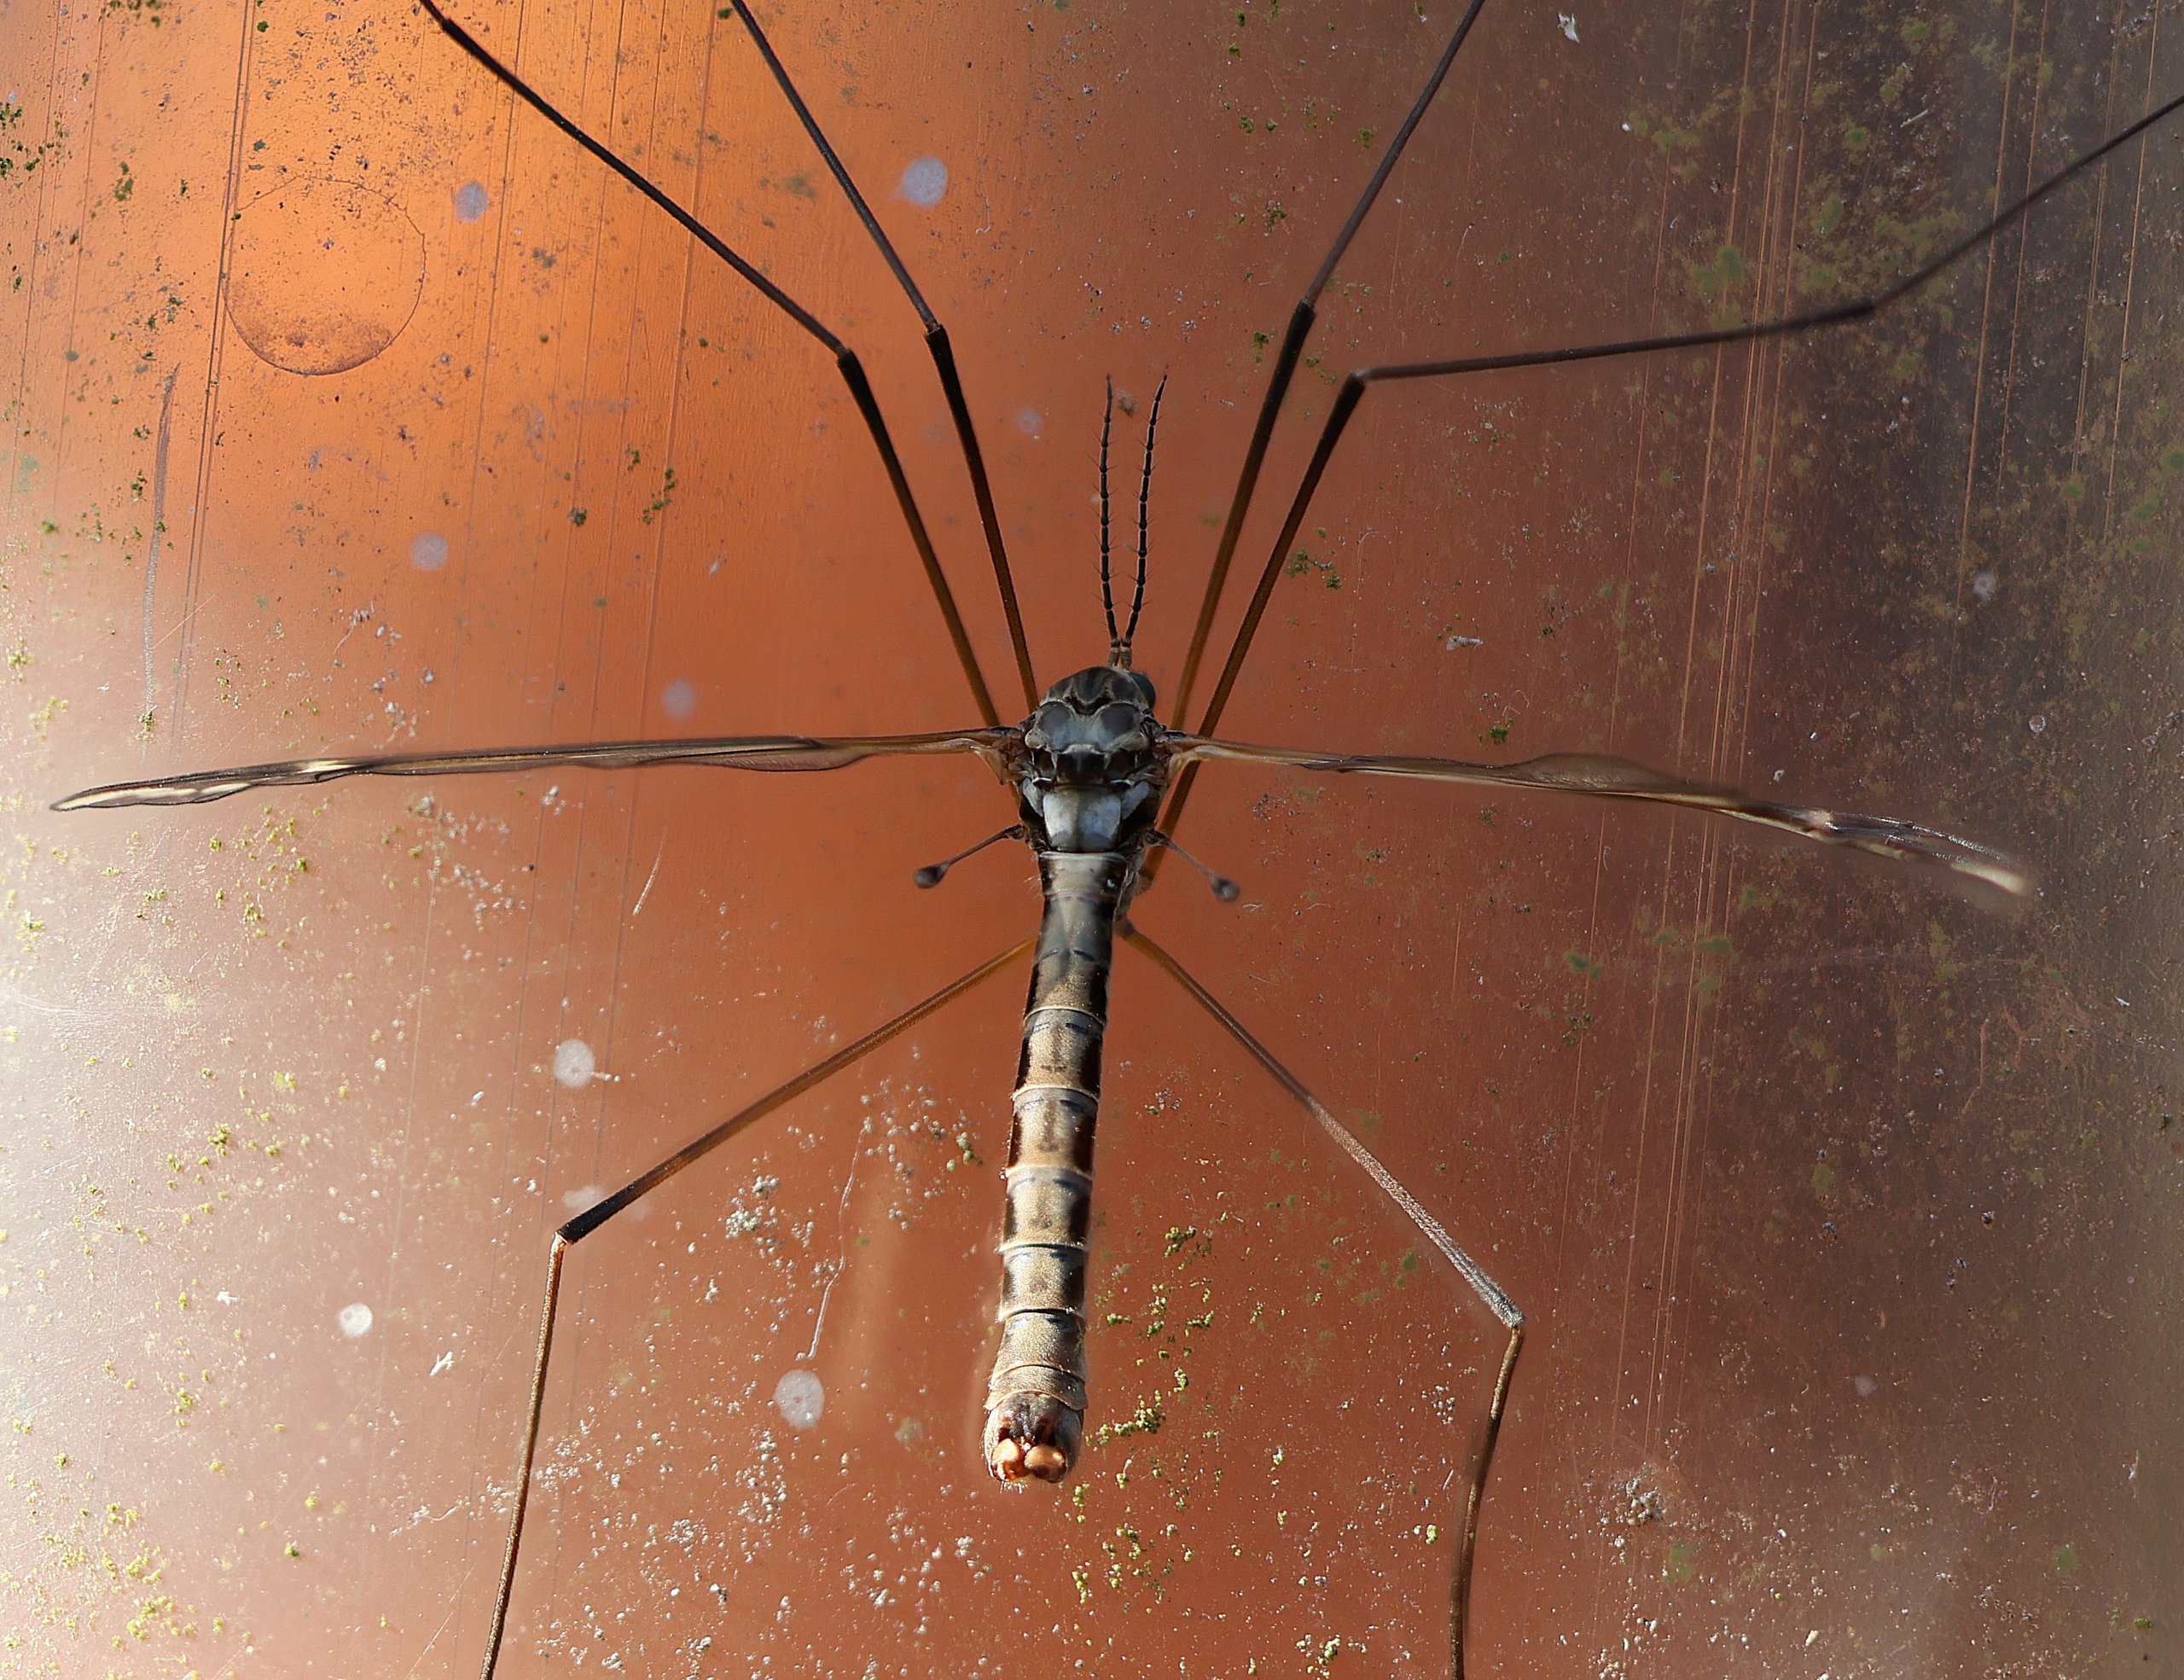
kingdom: Animalia
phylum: Arthropoda
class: Insecta
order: Diptera
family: Tipulidae
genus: Tipula
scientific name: Tipula vittata
